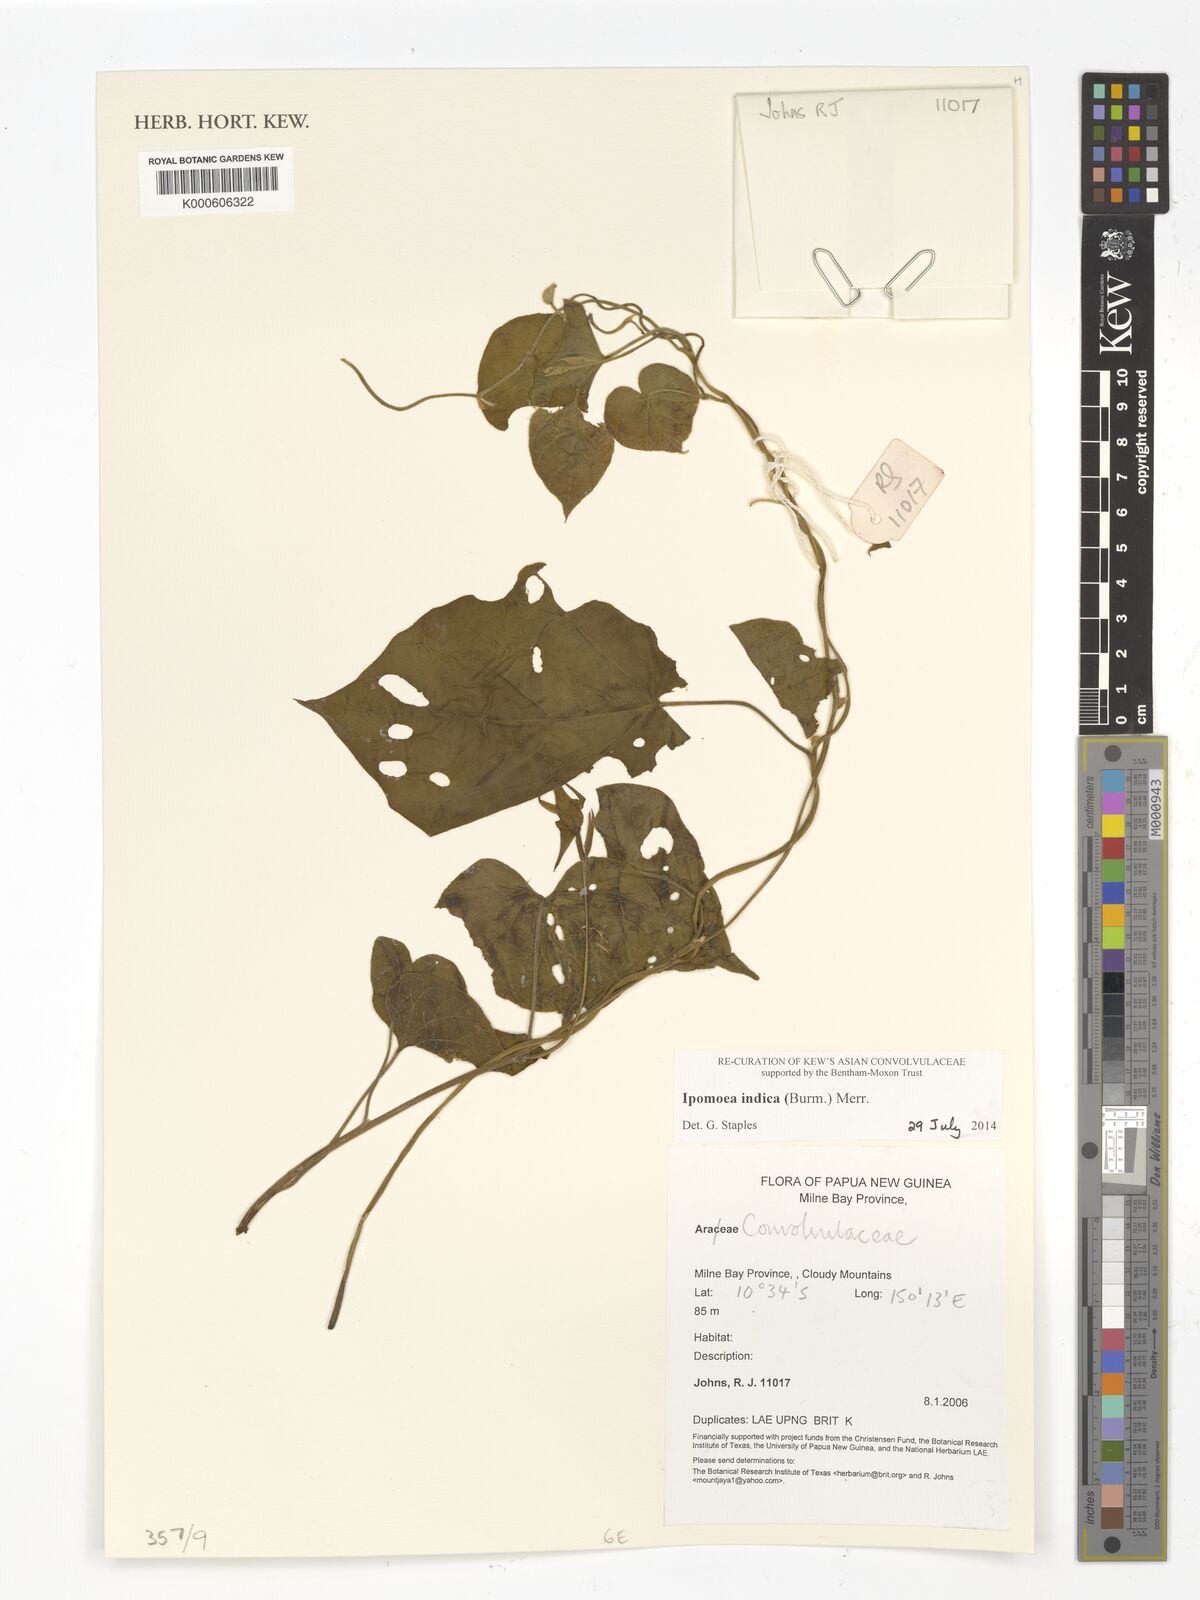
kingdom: Plantae
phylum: Tracheophyta
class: Magnoliopsida
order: Solanales
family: Convolvulaceae
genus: Ipomoea
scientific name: Ipomoea indica
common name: Blue dawnflower
